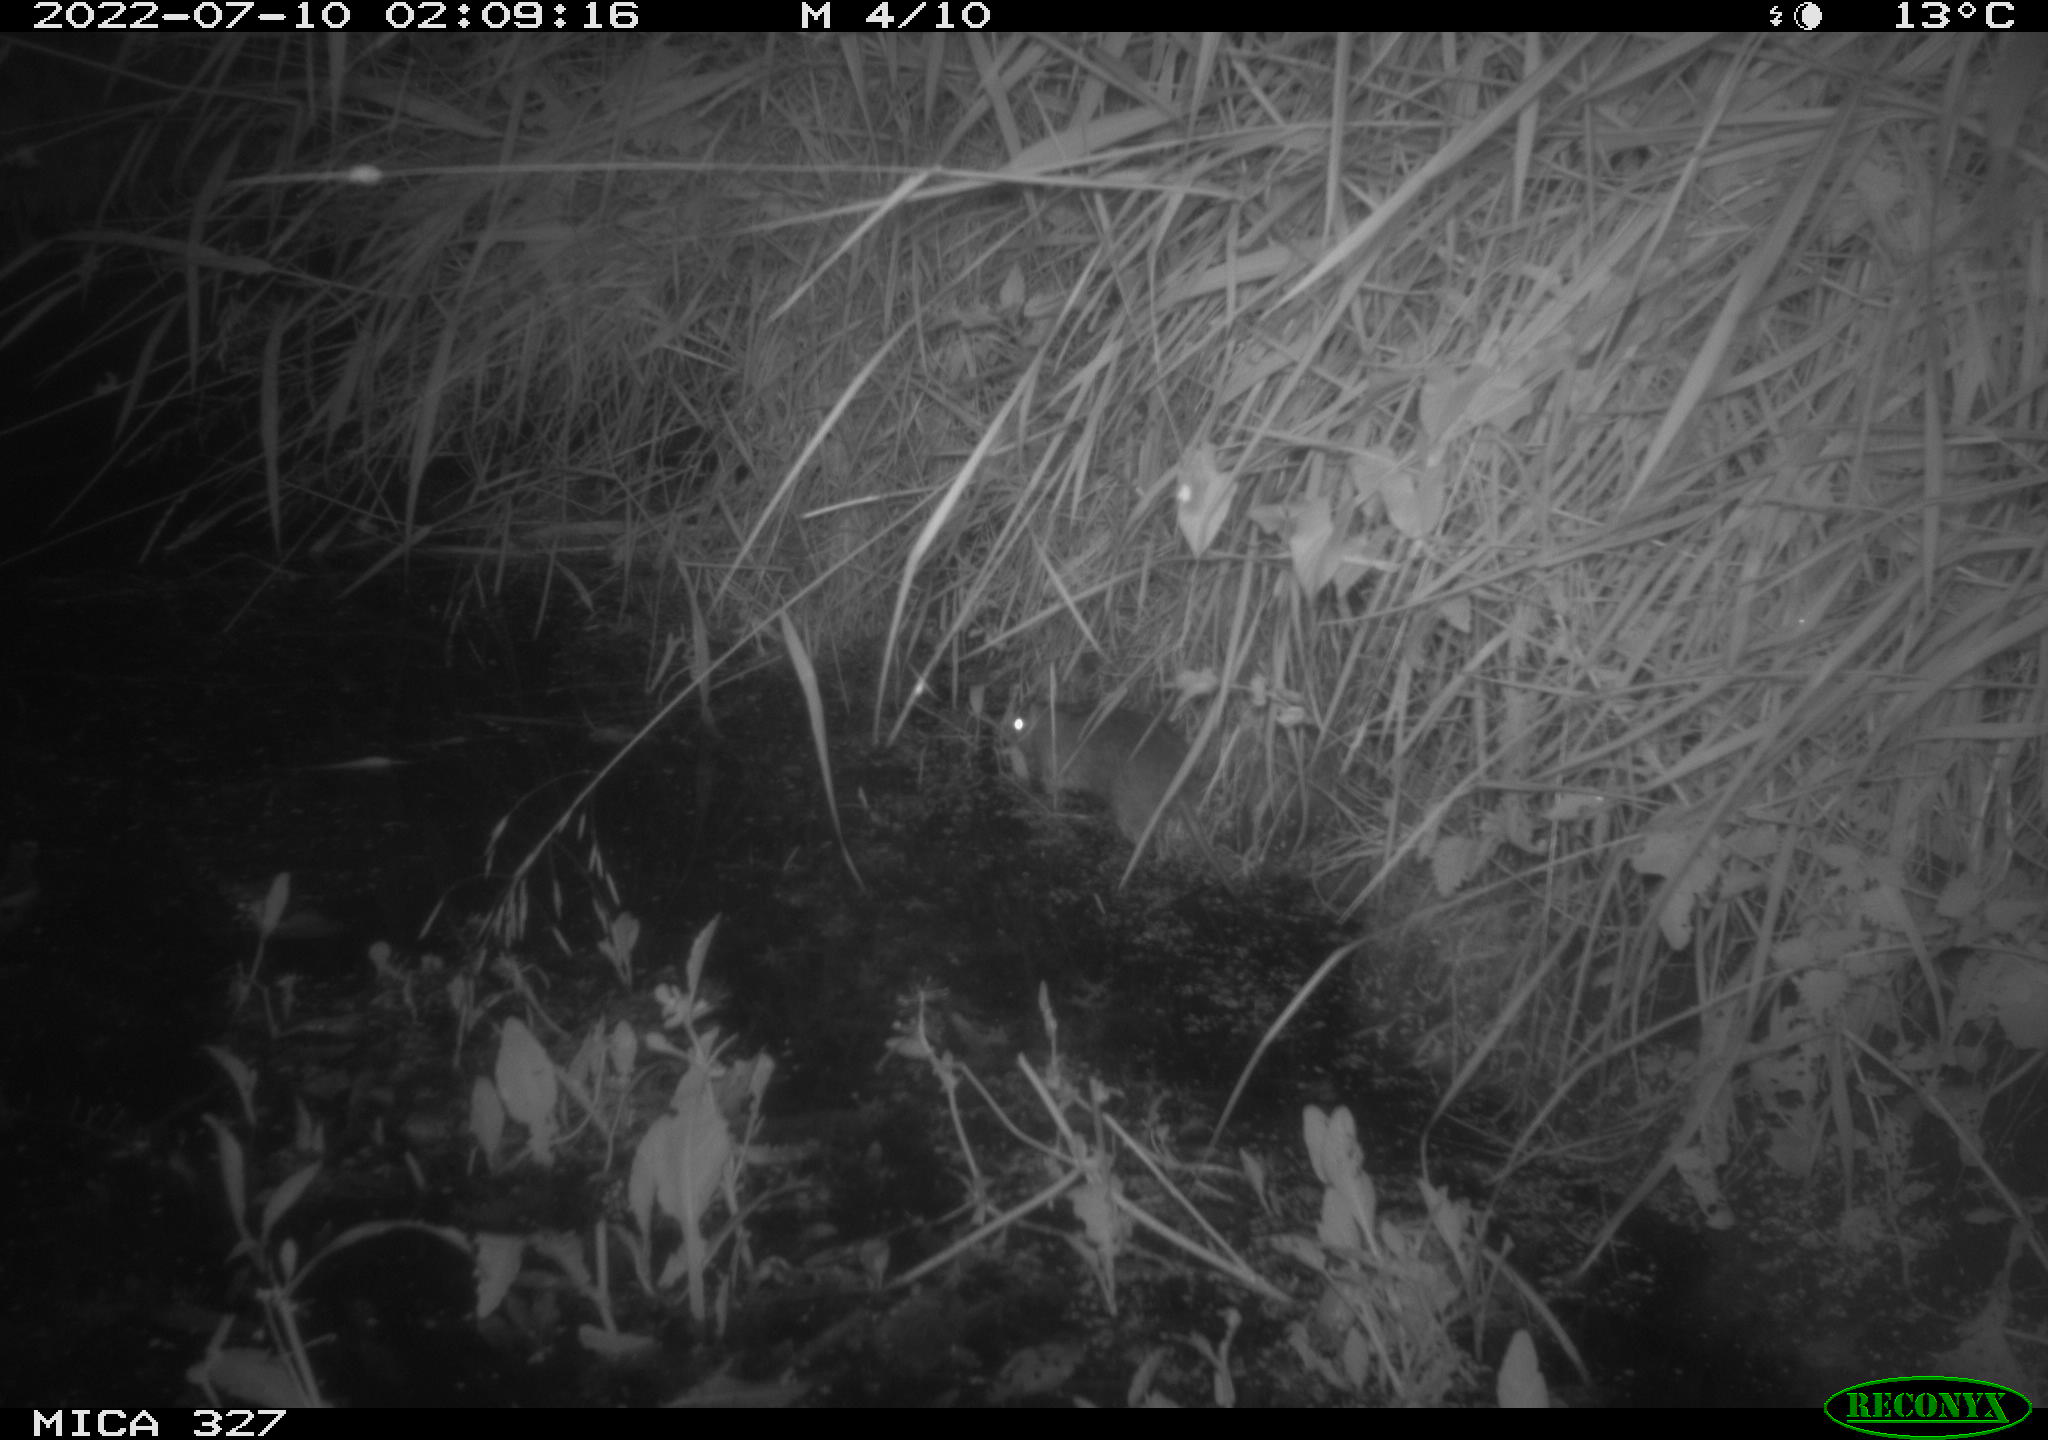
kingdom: Animalia
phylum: Chordata
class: Mammalia
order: Rodentia
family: Muridae
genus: Rattus
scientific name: Rattus norvegicus
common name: Brown rat
